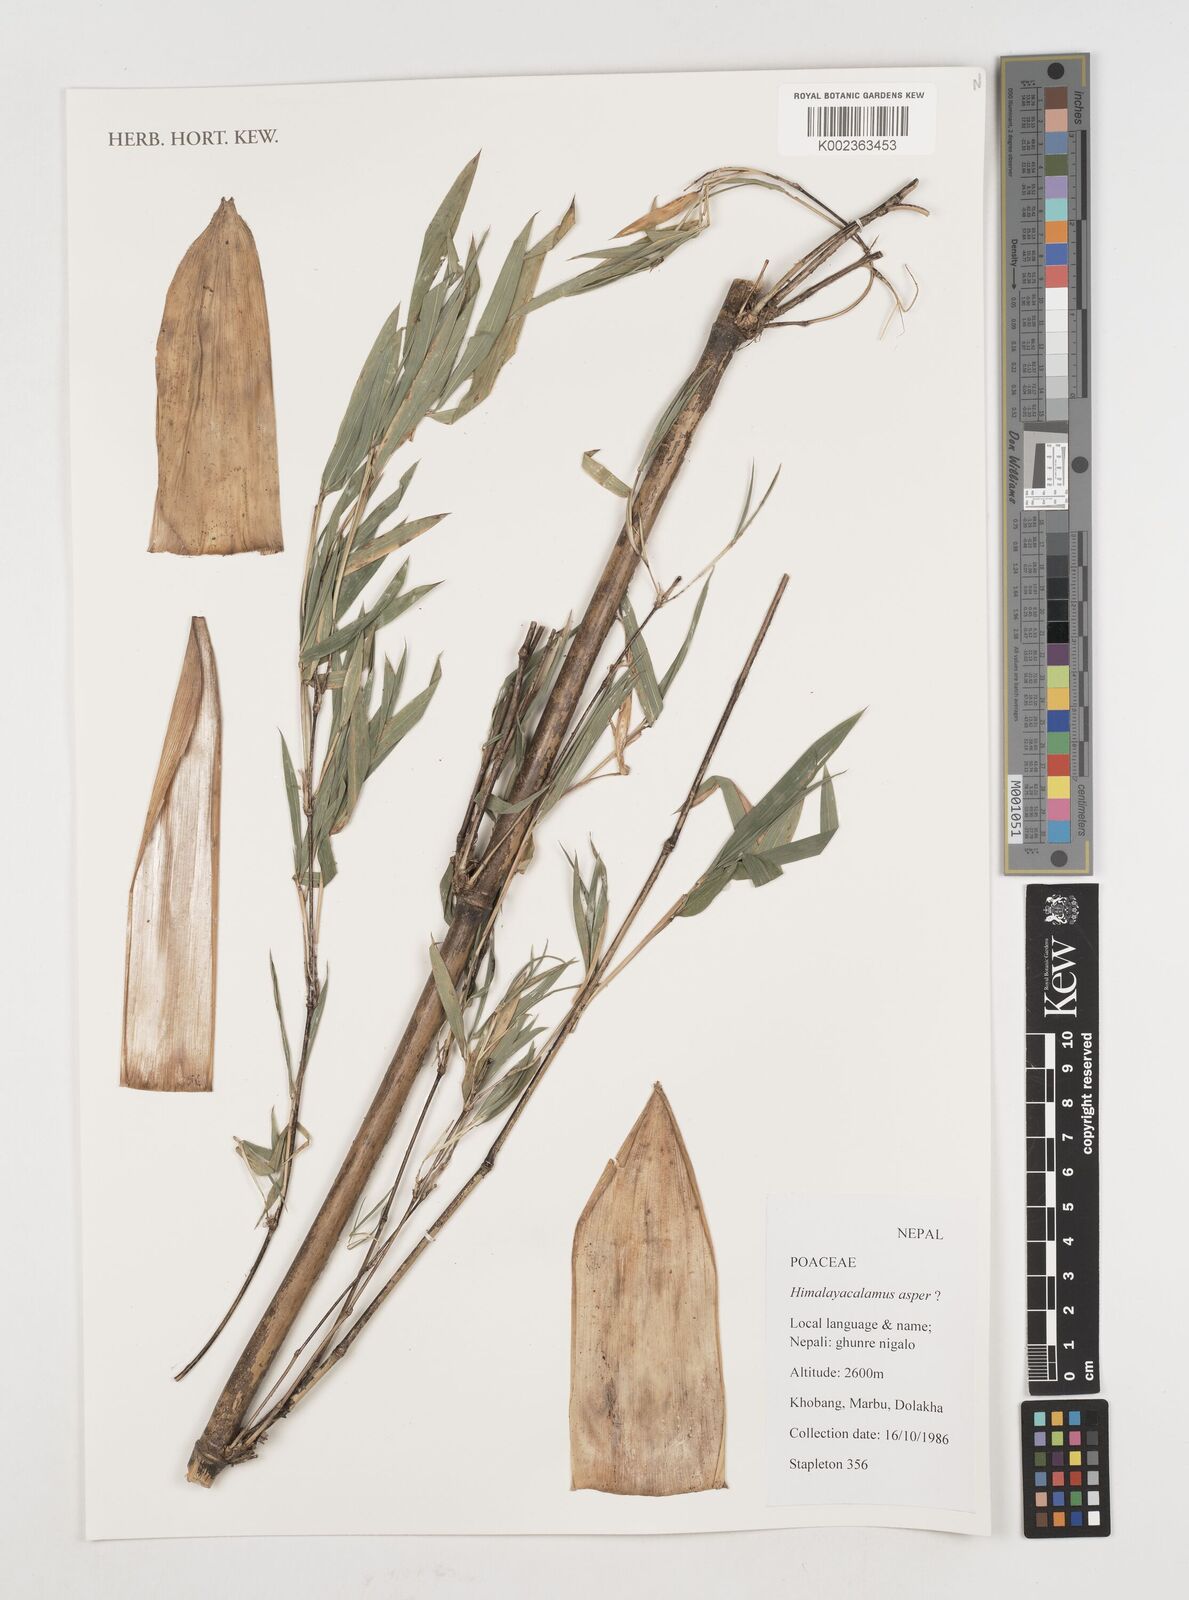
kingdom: Plantae
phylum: Tracheophyta
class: Liliopsida
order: Poales
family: Poaceae
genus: Himalayacalamus
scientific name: Himalayacalamus asper
